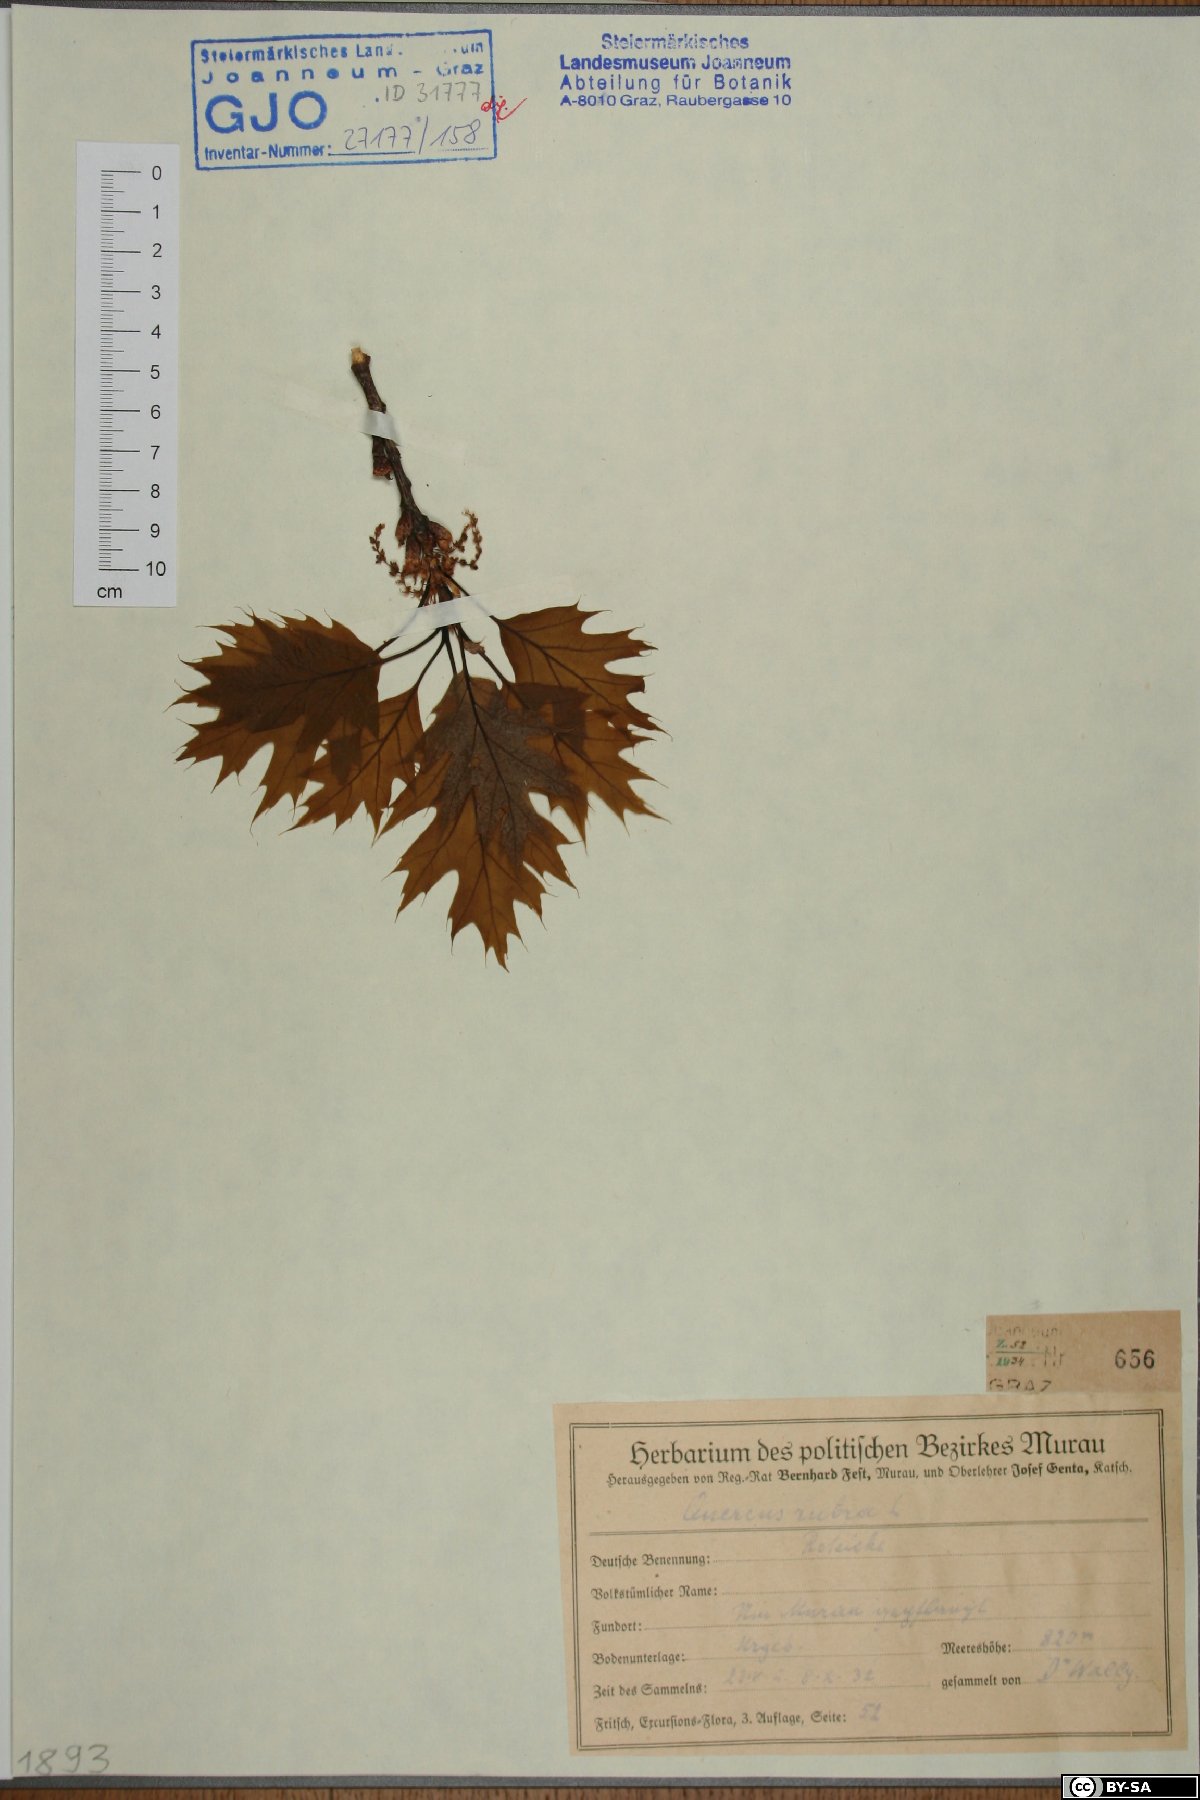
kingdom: Plantae
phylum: Tracheophyta
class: Magnoliopsida
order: Fagales
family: Fagaceae
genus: Quercus
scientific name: Quercus rubra
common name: Red oak
